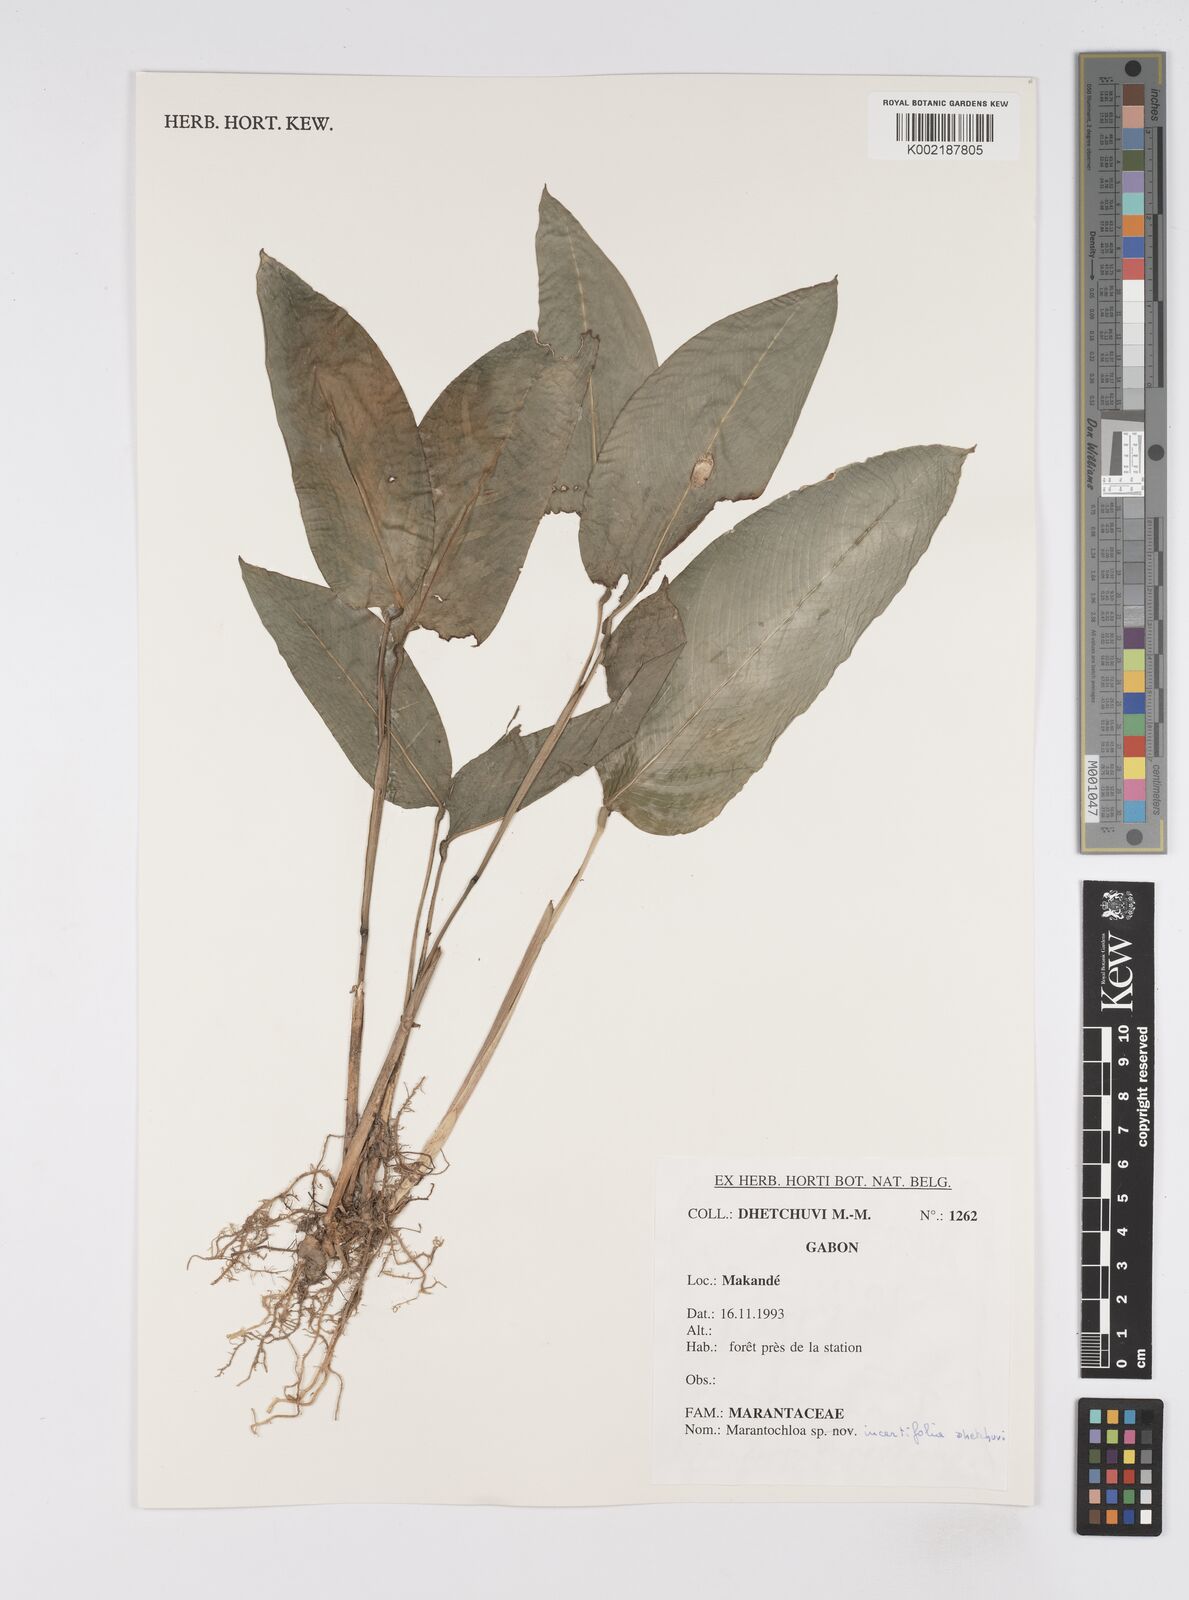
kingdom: Plantae
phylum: Tracheophyta
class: Liliopsida
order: Zingiberales
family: Marantaceae
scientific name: Marantaceae
